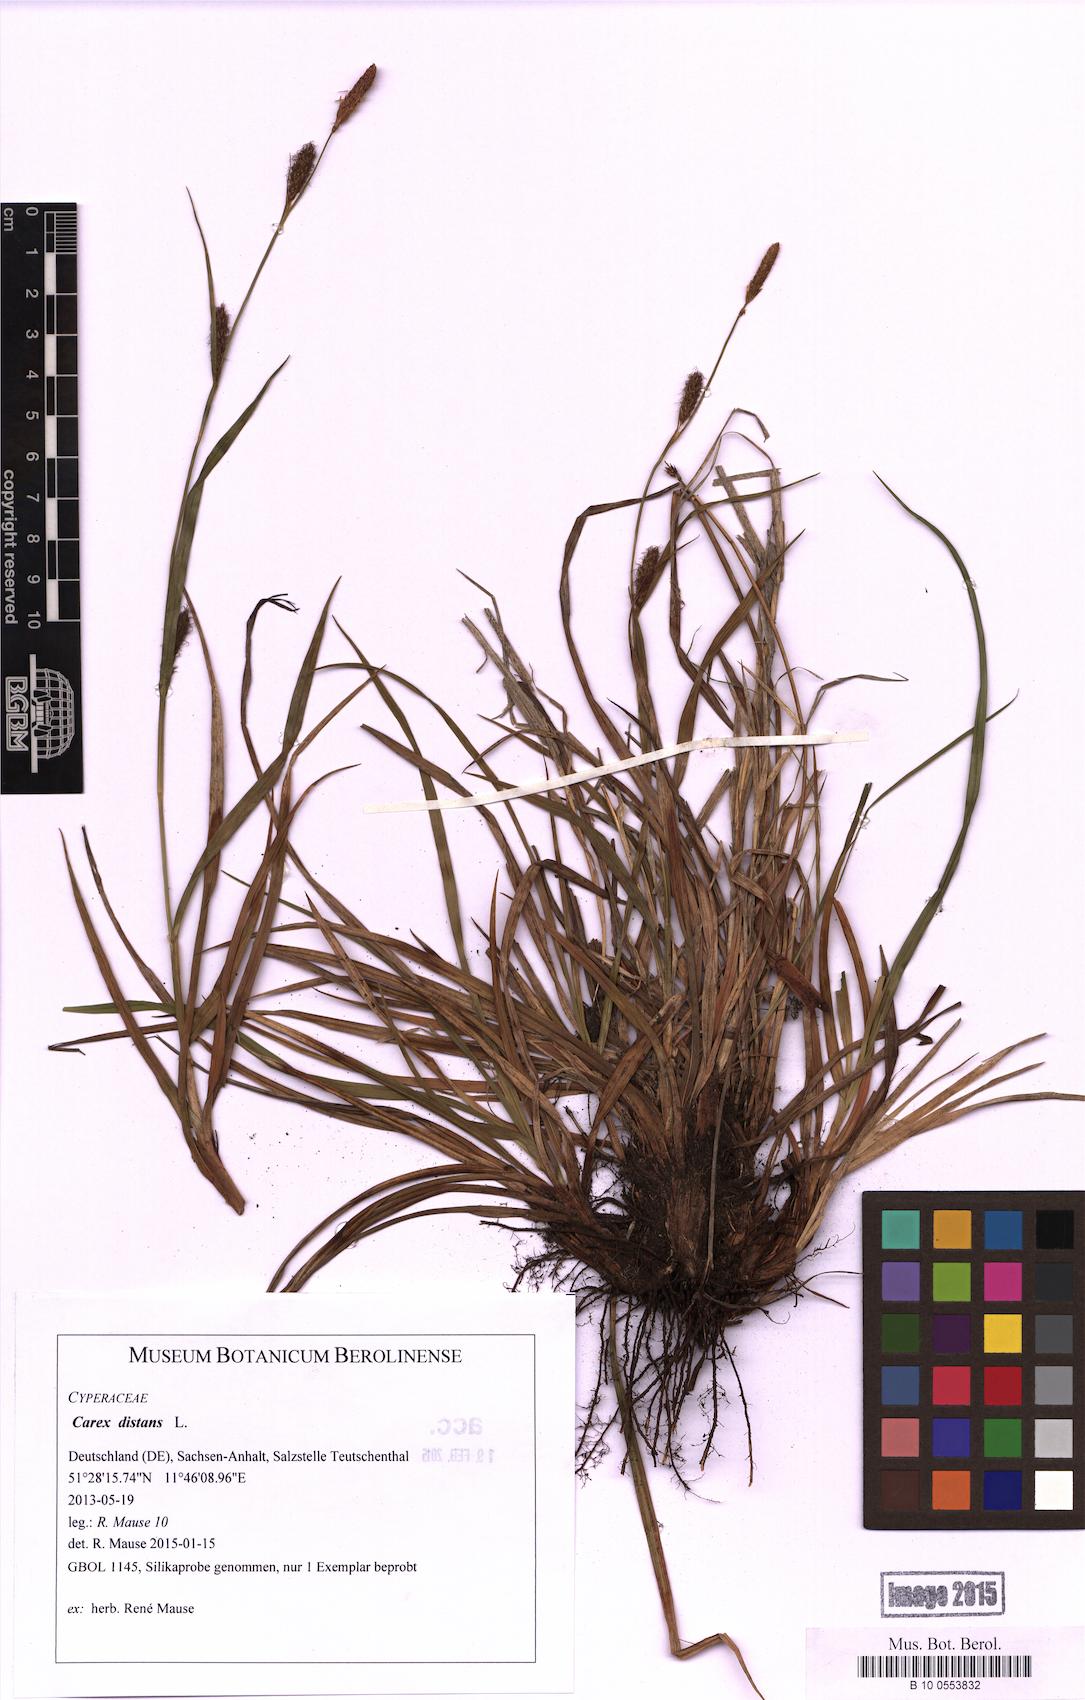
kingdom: Plantae
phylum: Tracheophyta
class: Liliopsida
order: Poales
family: Cyperaceae
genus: Carex
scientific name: Carex distans
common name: Distant sedge
